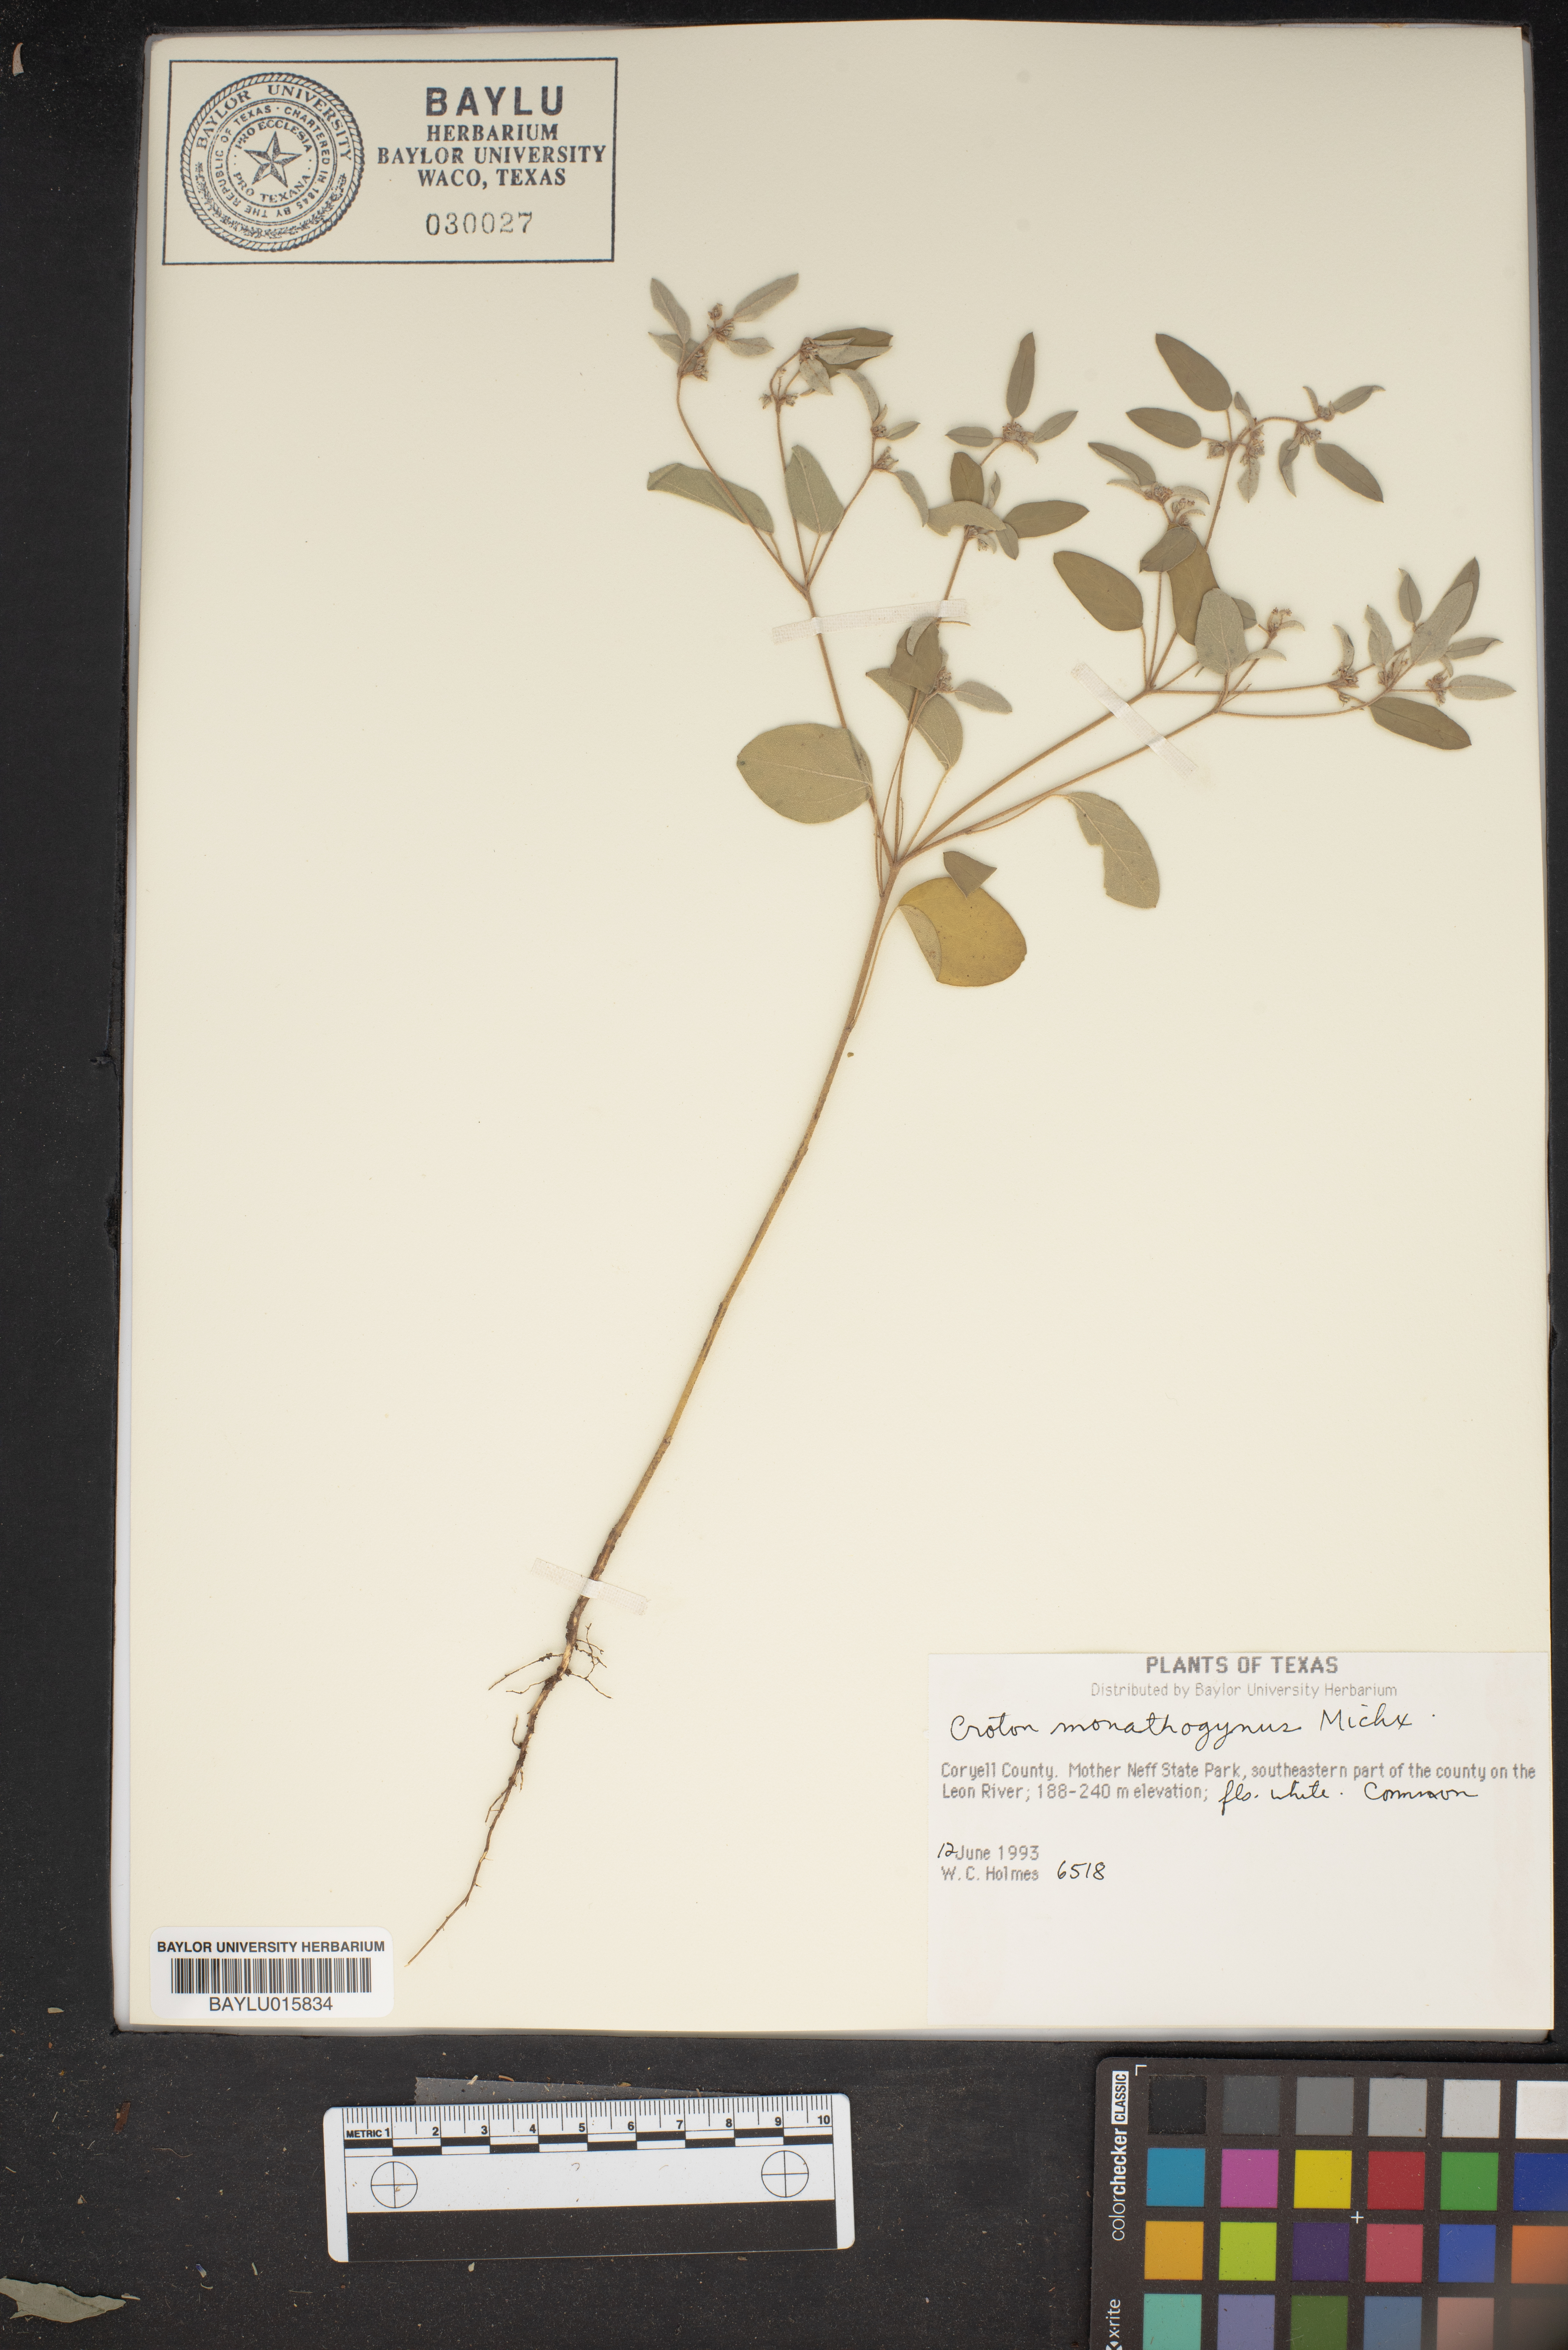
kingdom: Plantae
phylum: Tracheophyta
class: Magnoliopsida
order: Malpighiales
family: Euphorbiaceae
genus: Croton
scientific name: Croton monanthogynus
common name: One-seed croton
